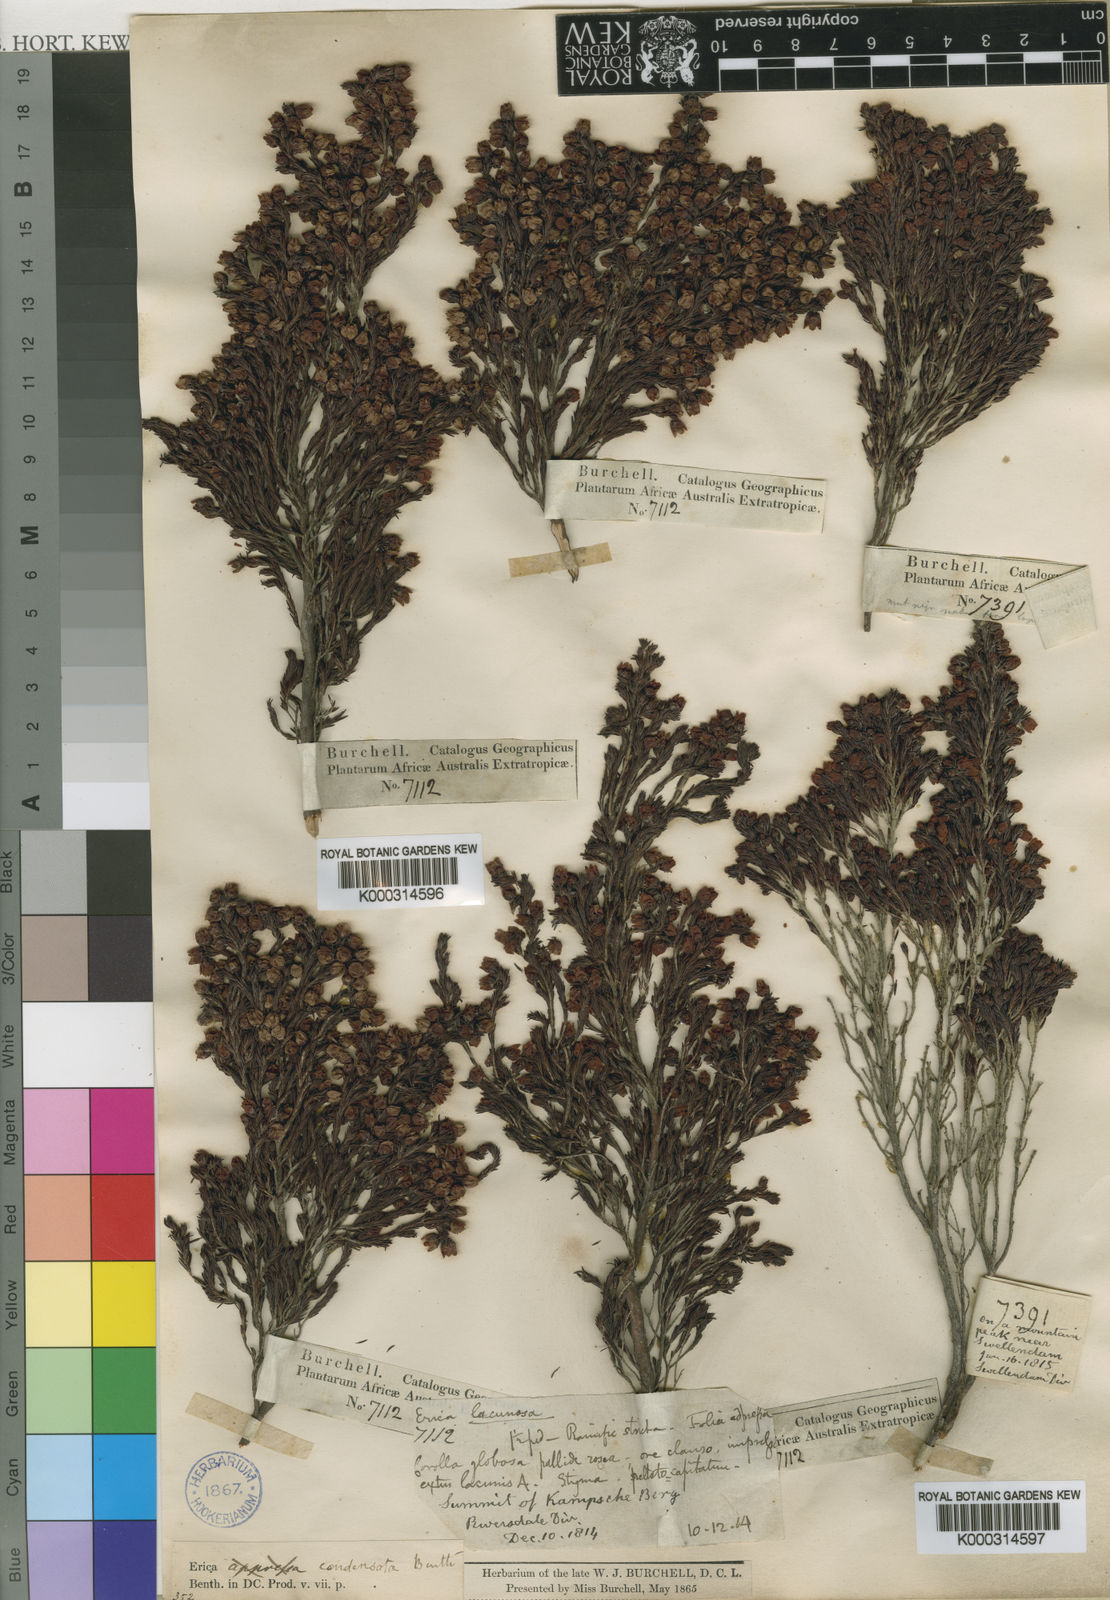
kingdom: Plantae
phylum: Tracheophyta
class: Magnoliopsida
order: Ericales
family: Ericaceae
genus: Erica
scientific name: Erica condensata
